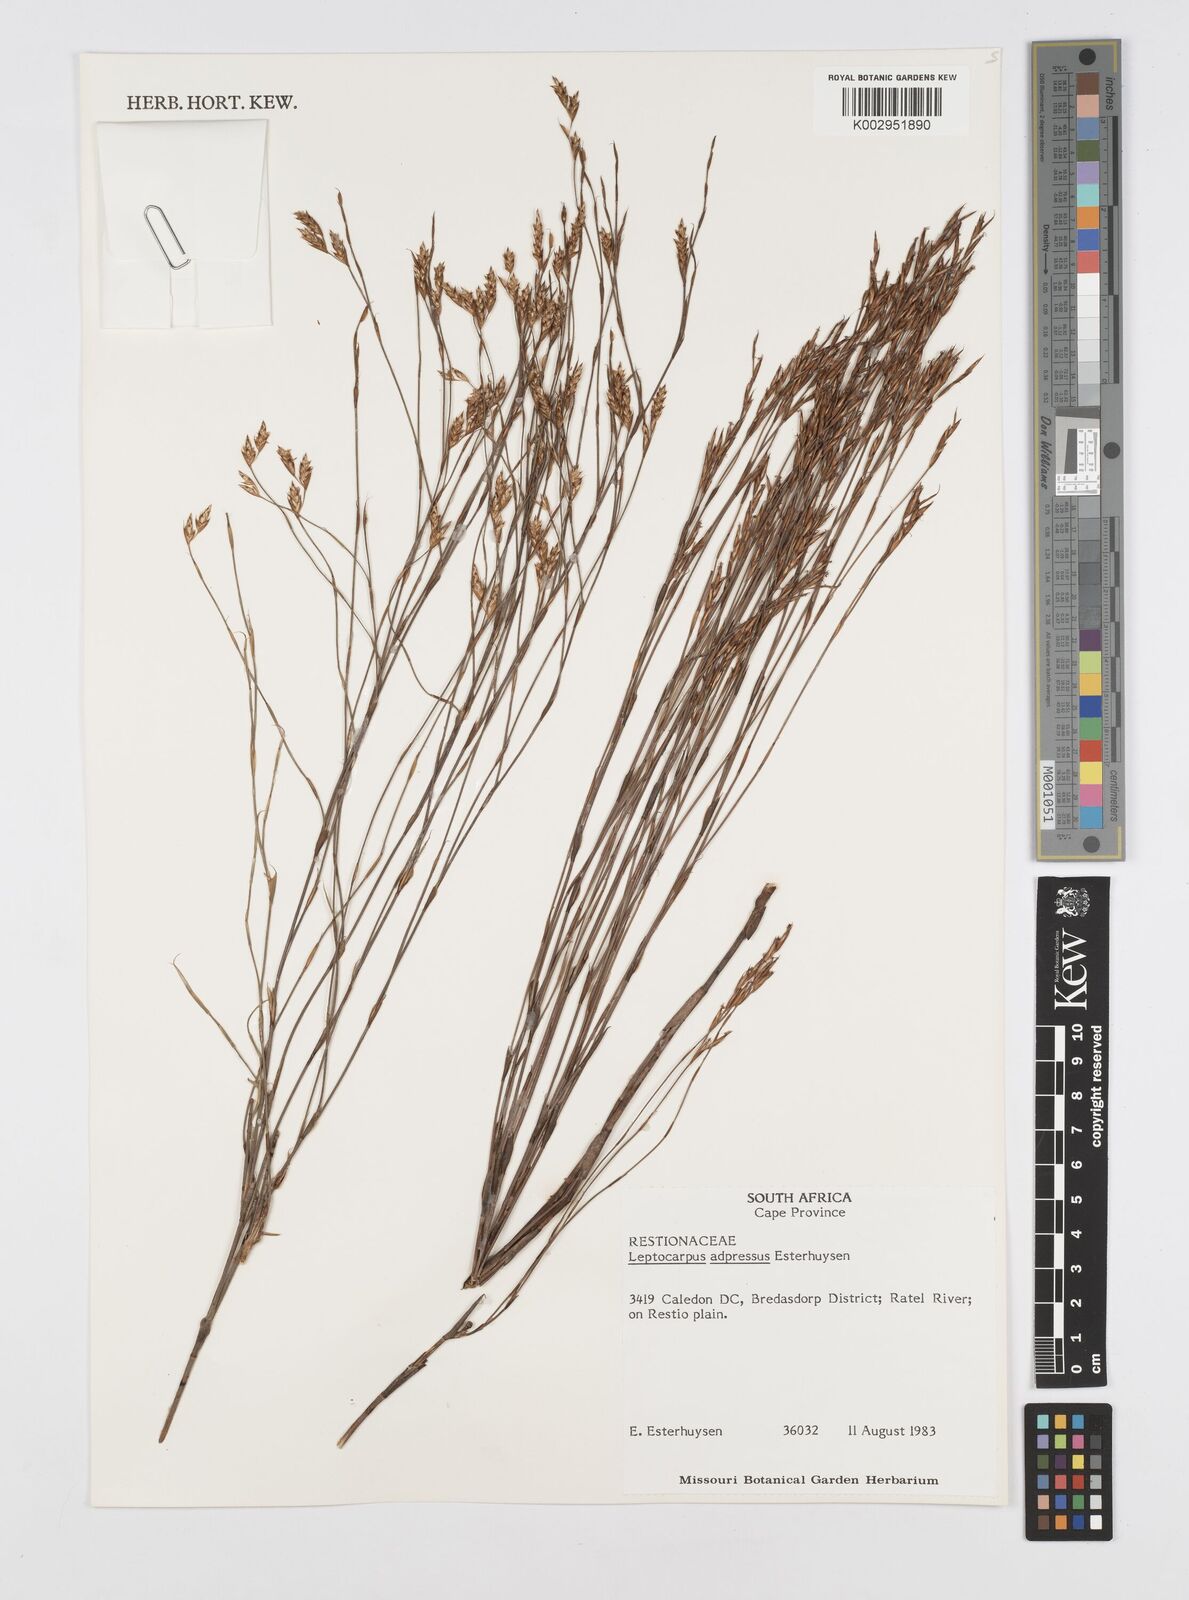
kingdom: Plantae
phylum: Tracheophyta
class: Liliopsida
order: Poales
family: Restionaceae
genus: Restio
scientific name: Restio adpressus
